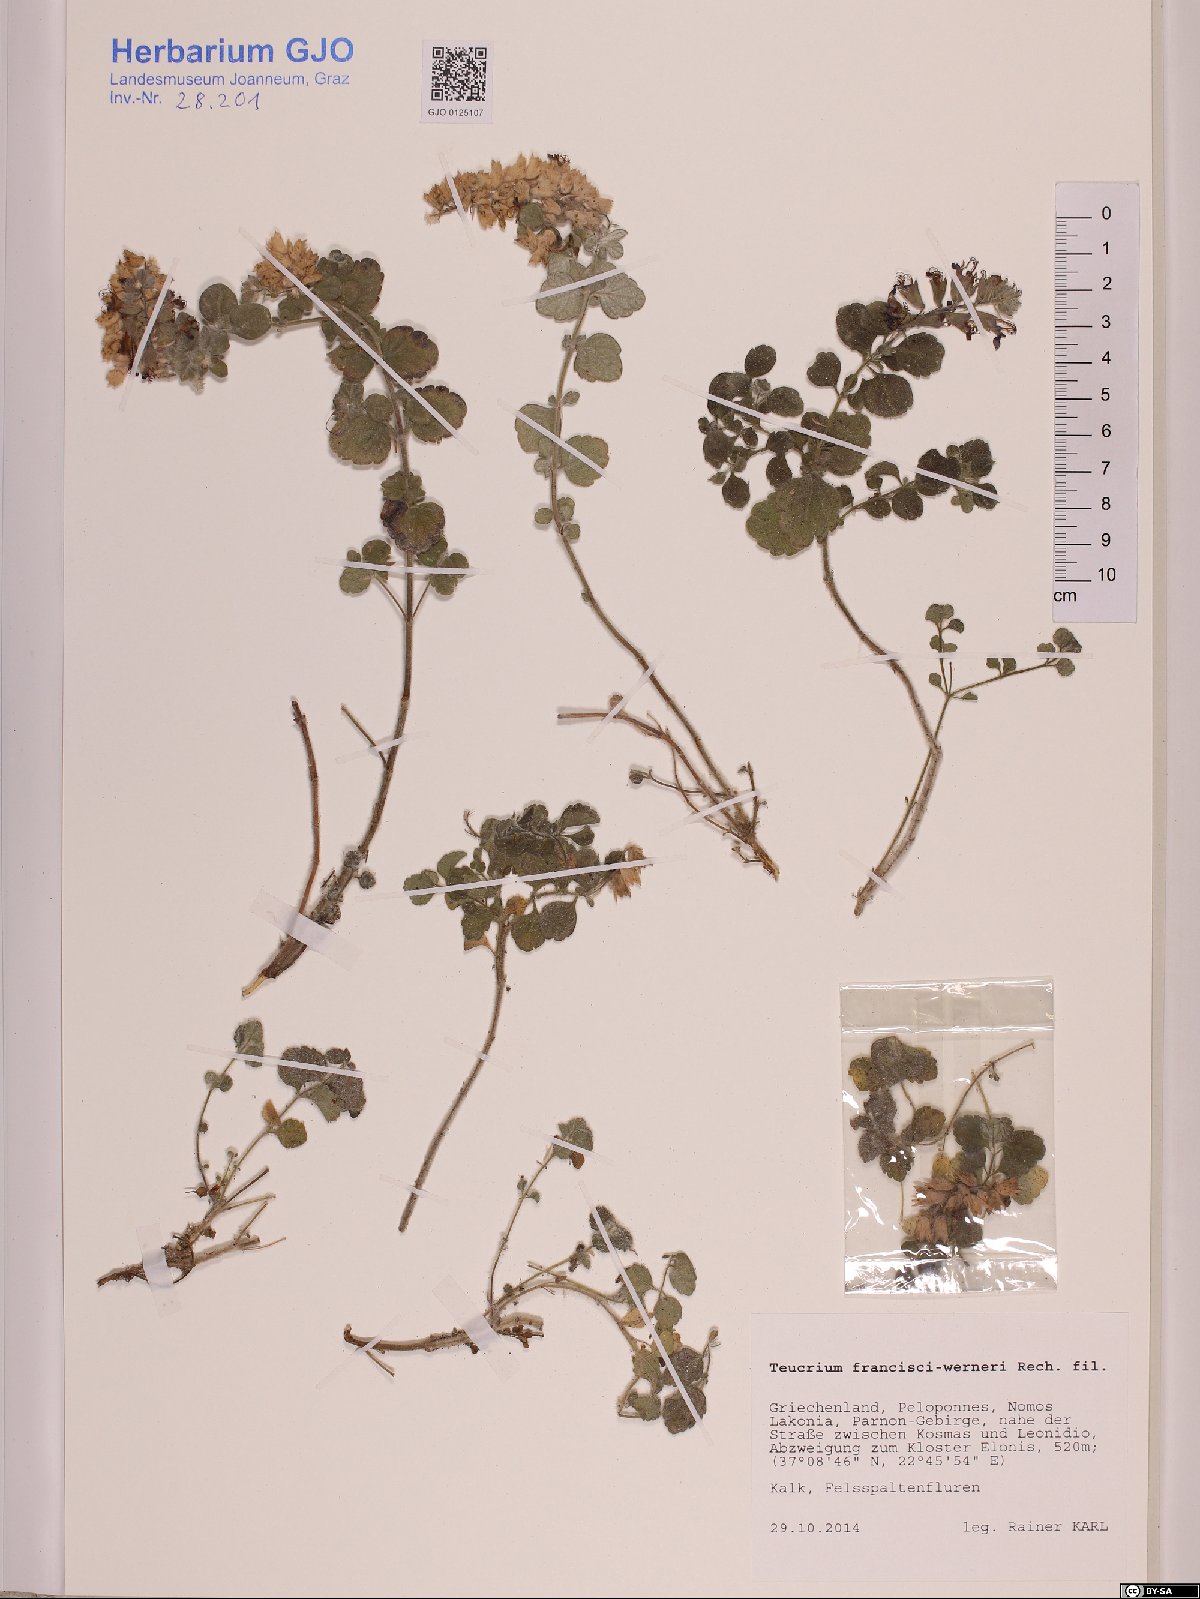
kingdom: Plantae
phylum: Tracheophyta
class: Magnoliopsida
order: Lamiales
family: Lamiaceae
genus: Teucrium
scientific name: Teucrium francisci-werneri
